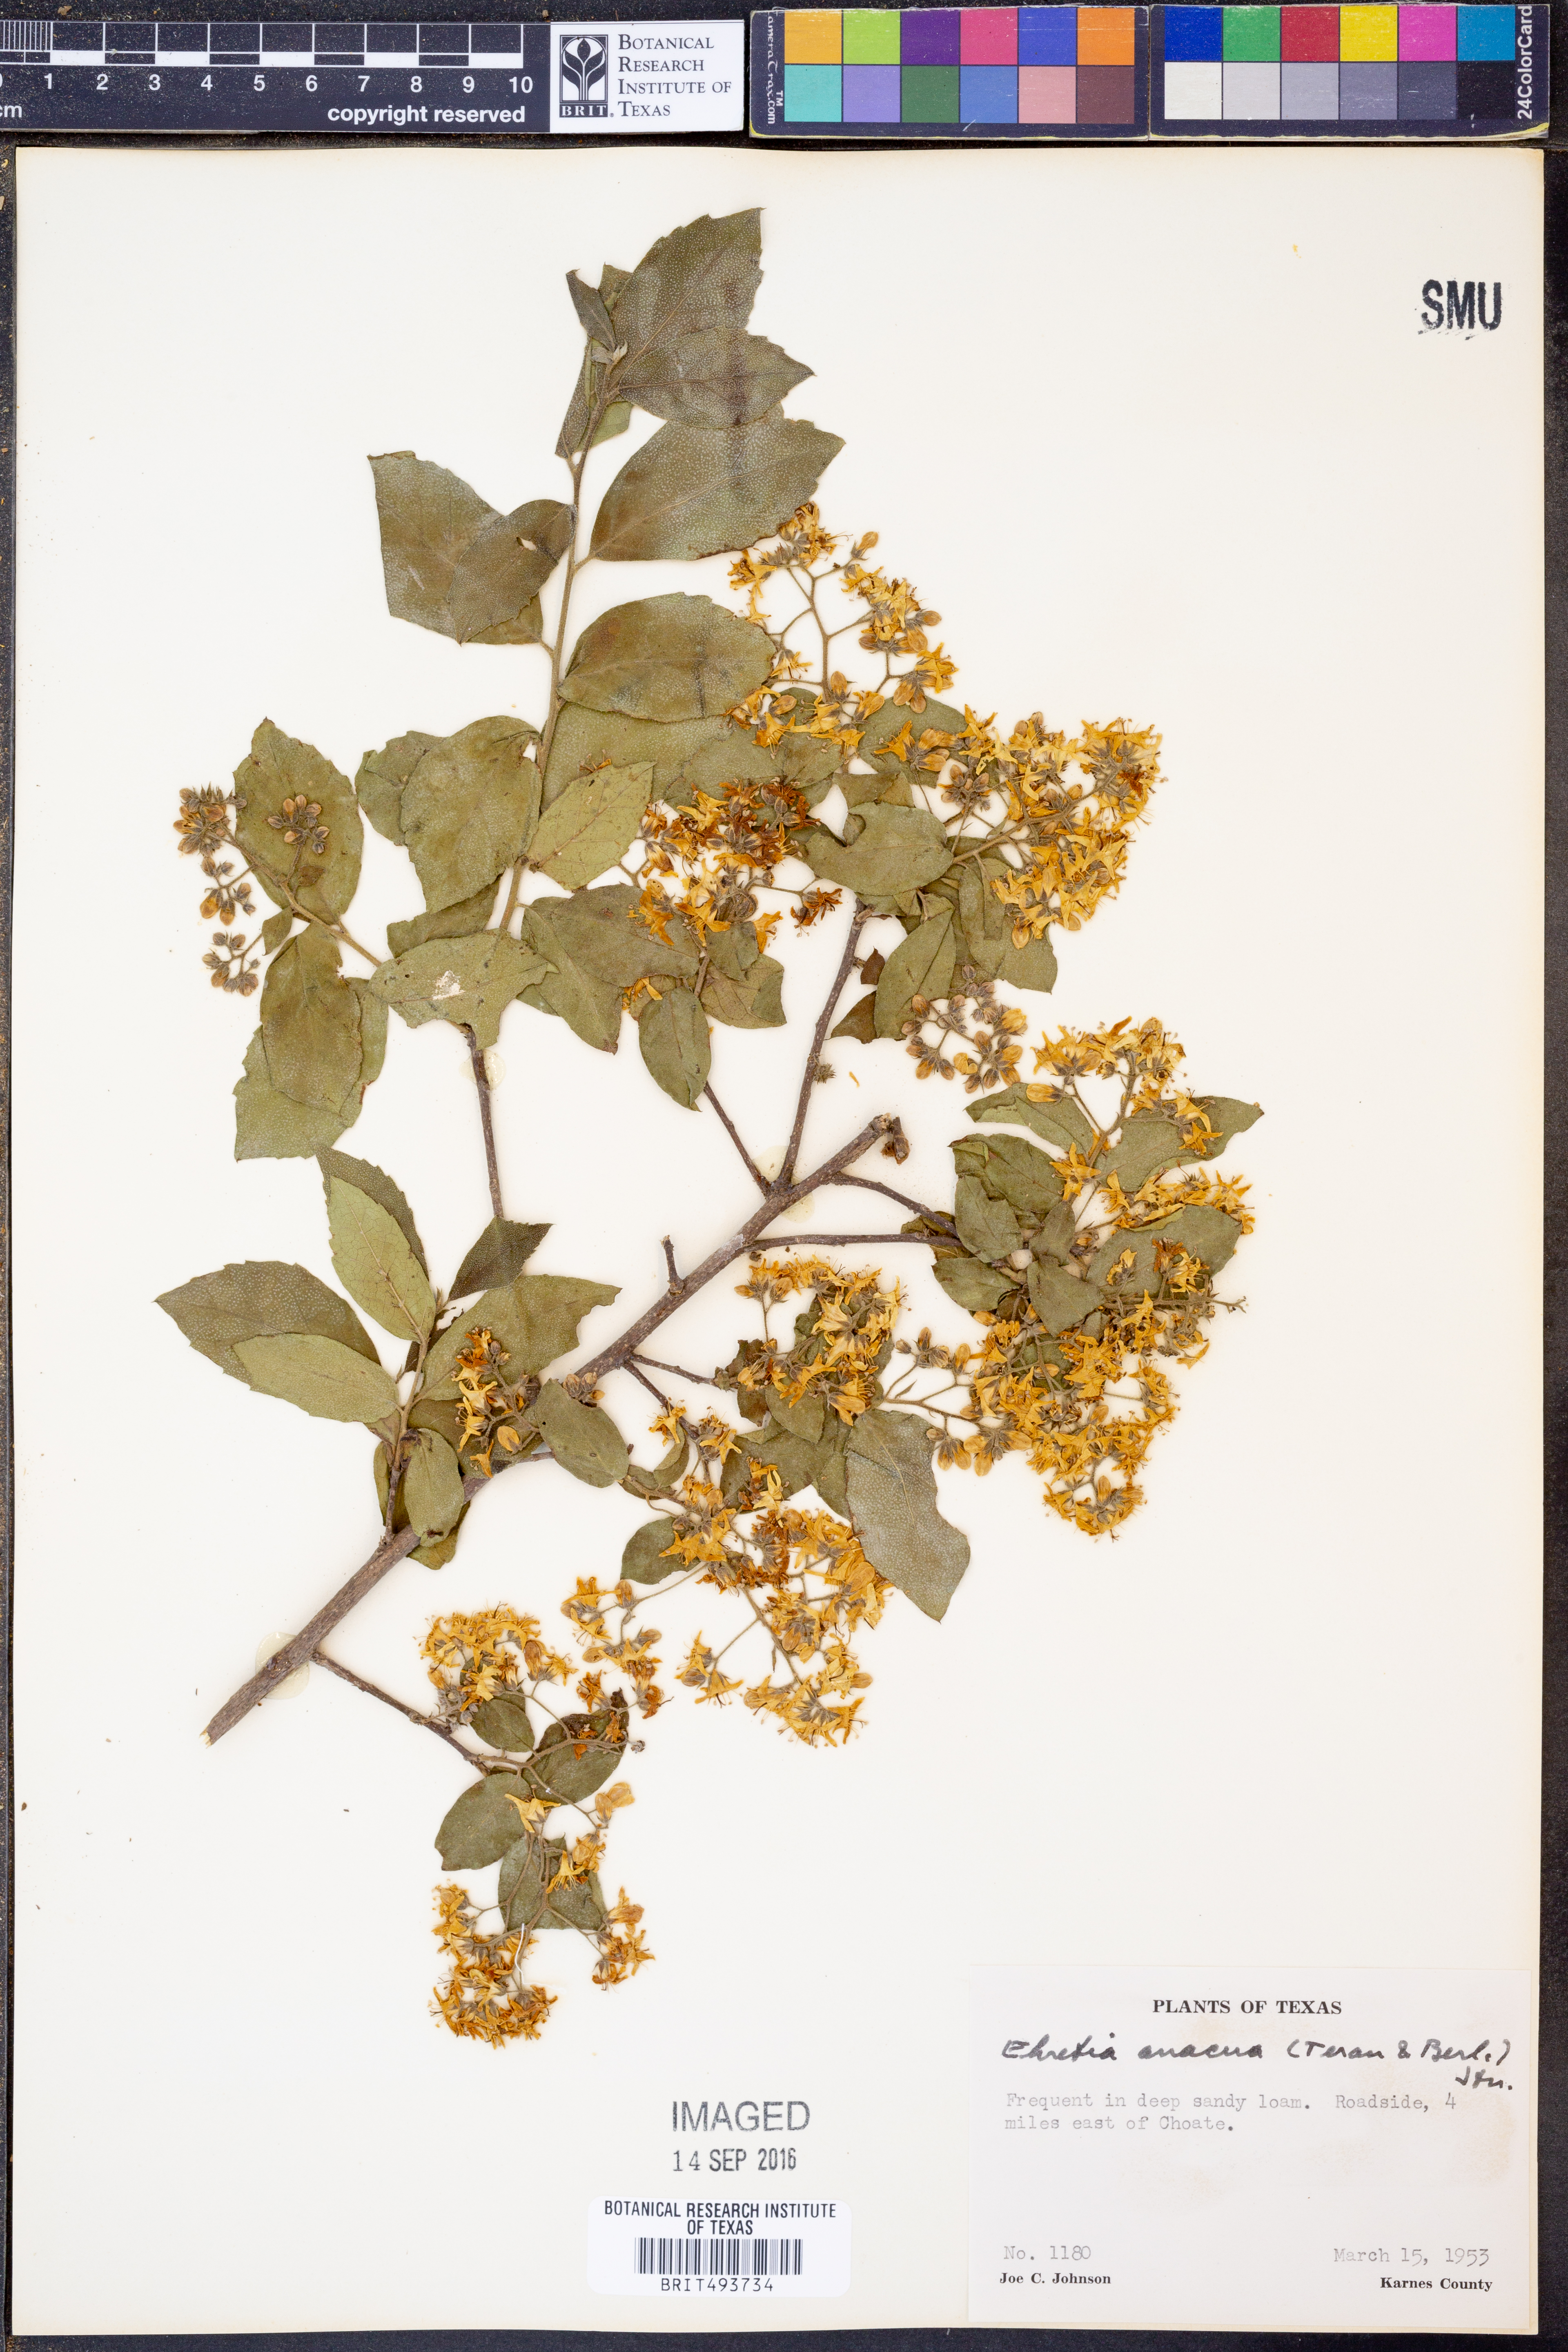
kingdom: Plantae
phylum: Tracheophyta
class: Magnoliopsida
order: Boraginales
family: Ehretiaceae
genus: Ehretia
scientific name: Ehretia anacua
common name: Sugarberry
